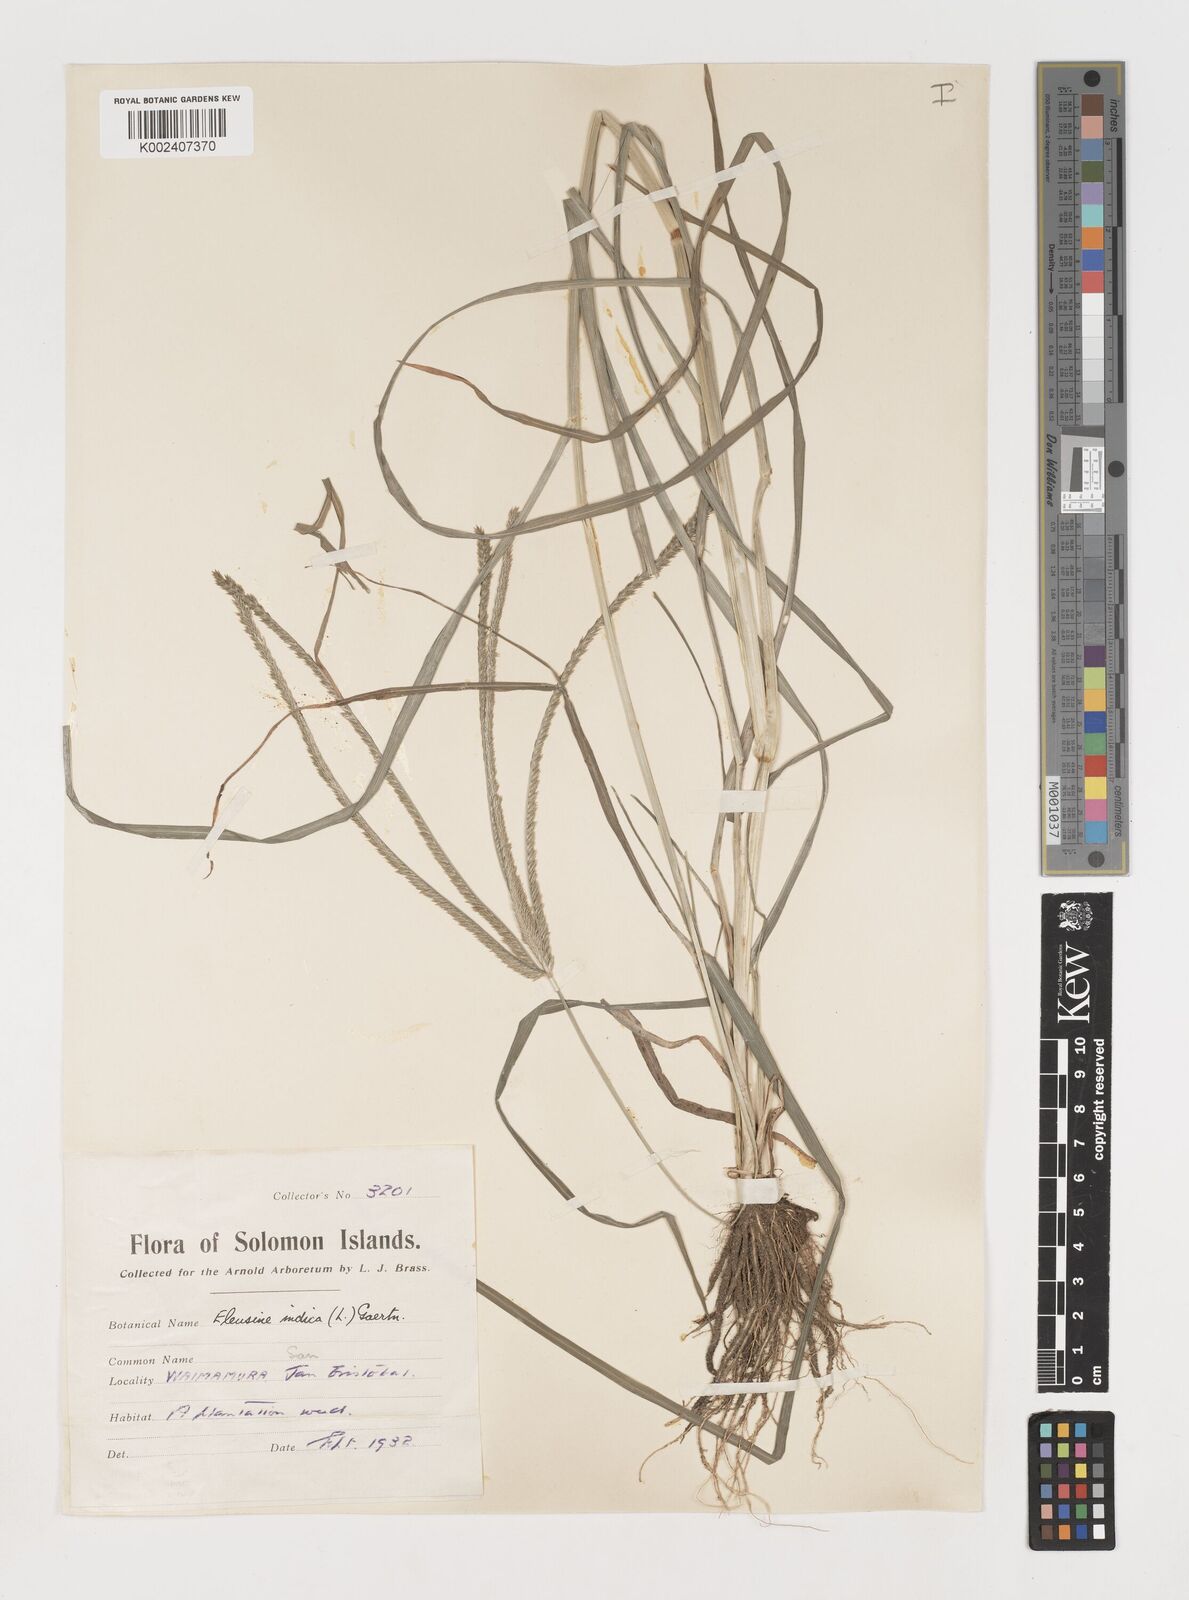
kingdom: Plantae
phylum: Tracheophyta
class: Liliopsida
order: Poales
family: Poaceae
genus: Eleusine
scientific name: Eleusine indica
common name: Yard-grass
